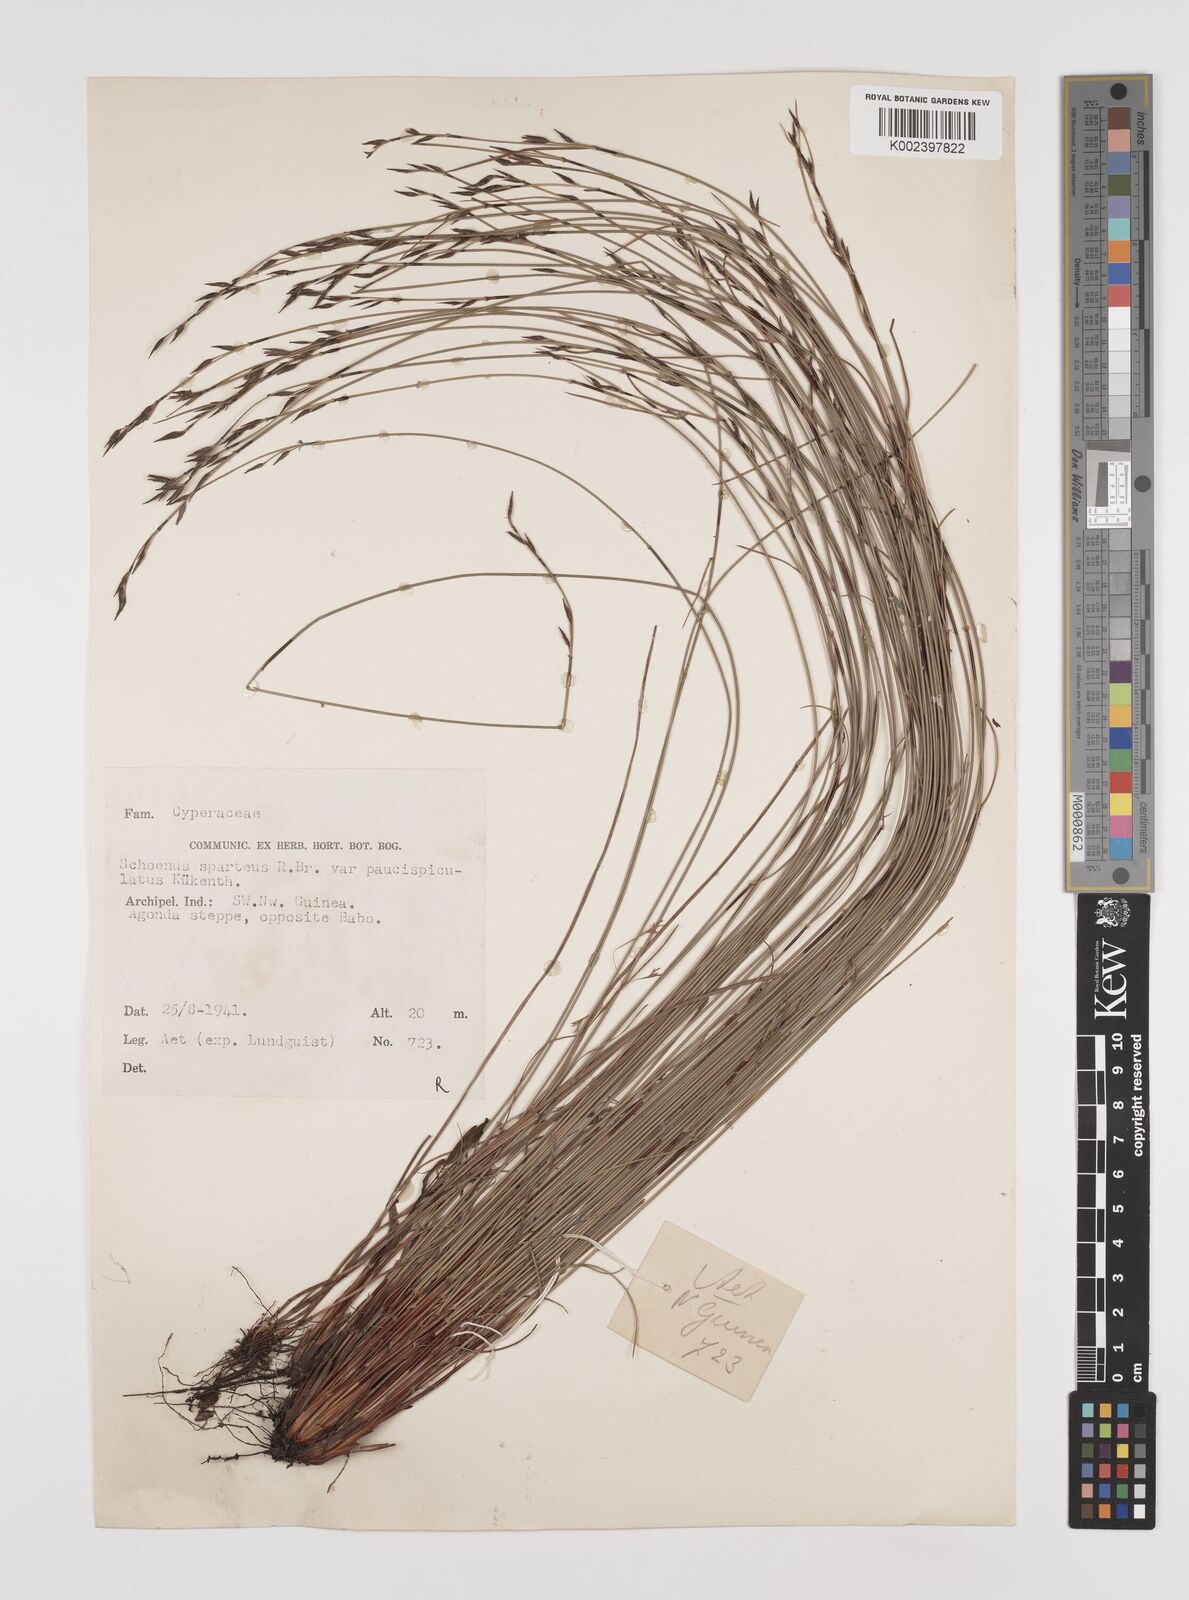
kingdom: Plantae
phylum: Tracheophyta
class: Liliopsida
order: Poales
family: Cyperaceae
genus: Schoenus
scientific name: Schoenus sparteus
